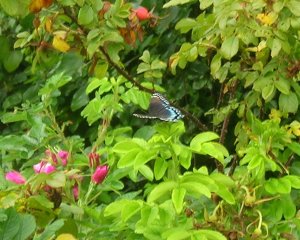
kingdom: Animalia
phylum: Arthropoda
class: Insecta
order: Lepidoptera
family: Nymphalidae
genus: Limenitis
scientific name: Limenitis astyanax
